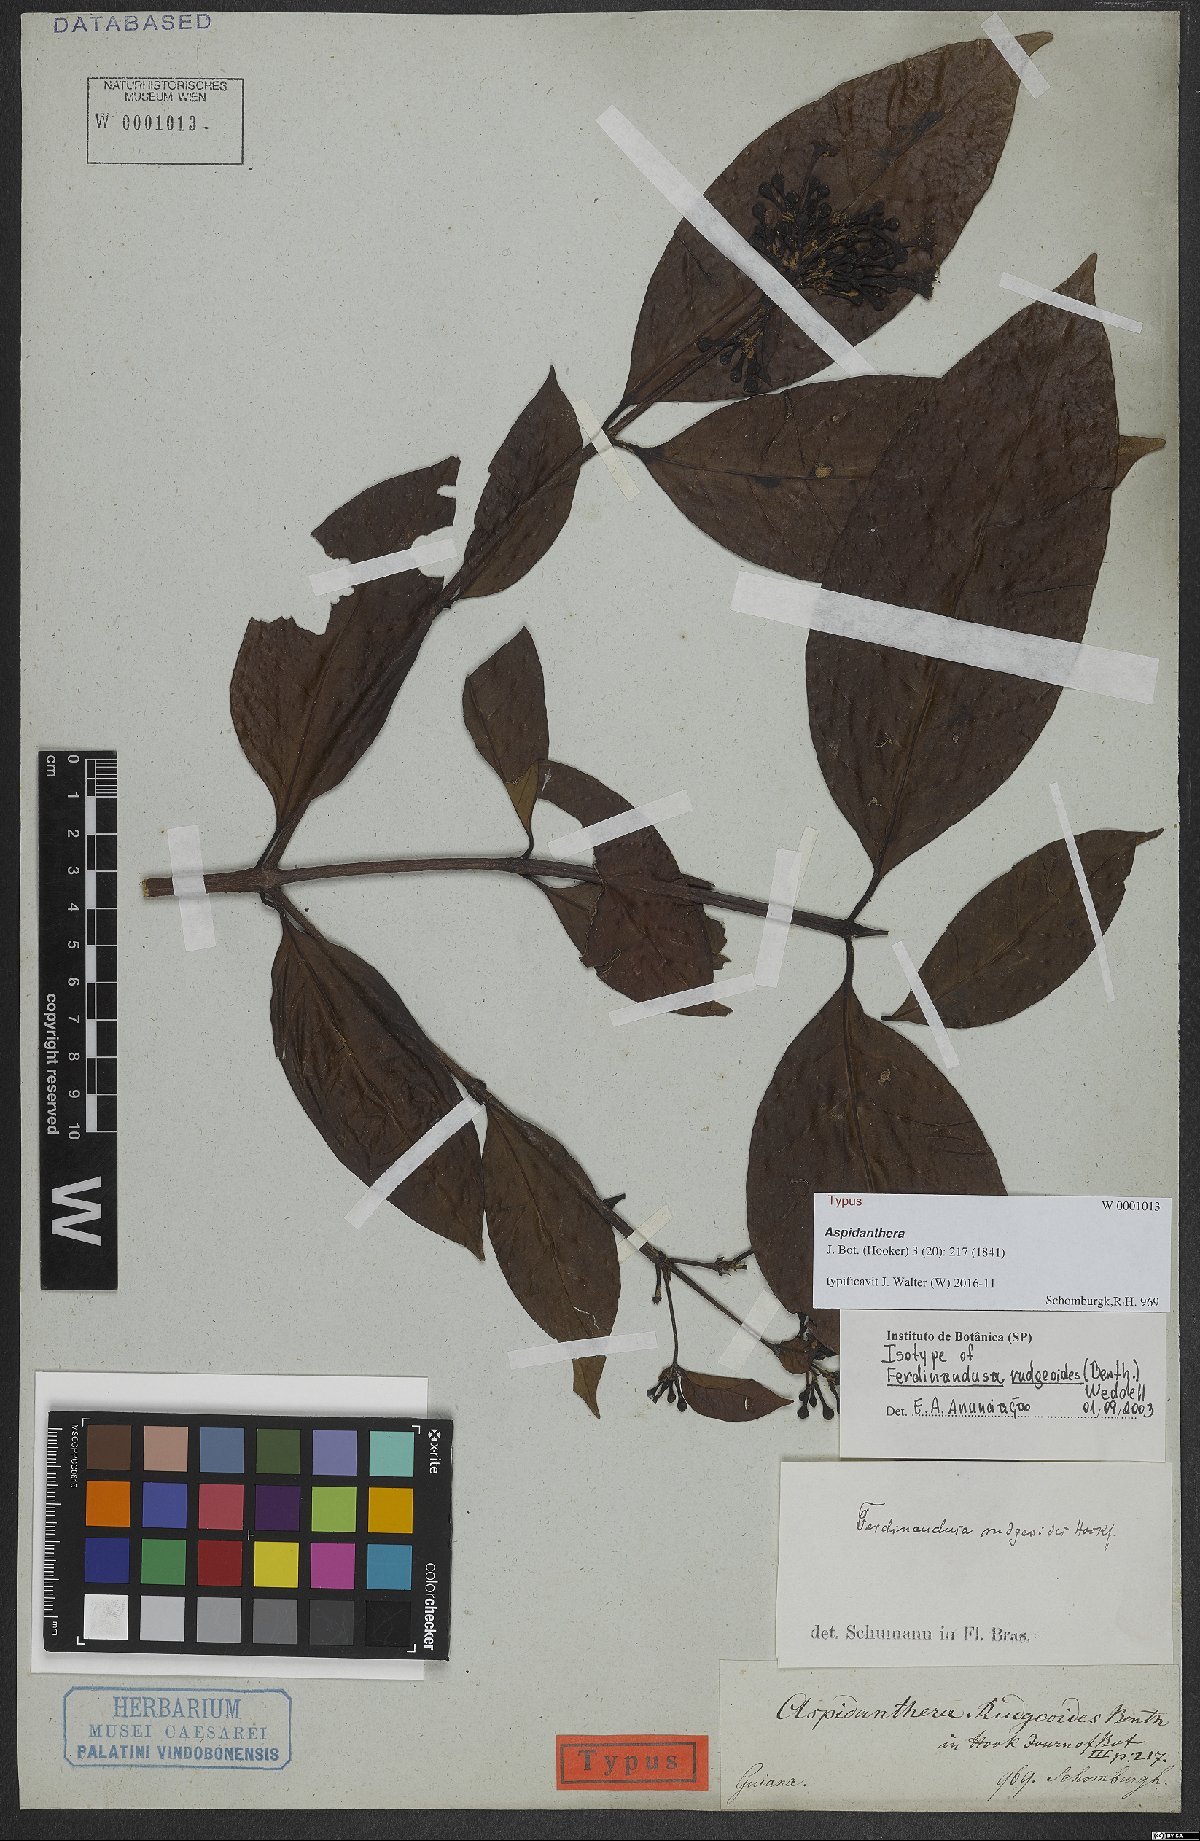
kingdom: Plantae
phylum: Tracheophyta
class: Magnoliopsida
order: Gentianales
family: Rubiaceae
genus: Ferdinandusa
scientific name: Ferdinandusa rudgeoides
